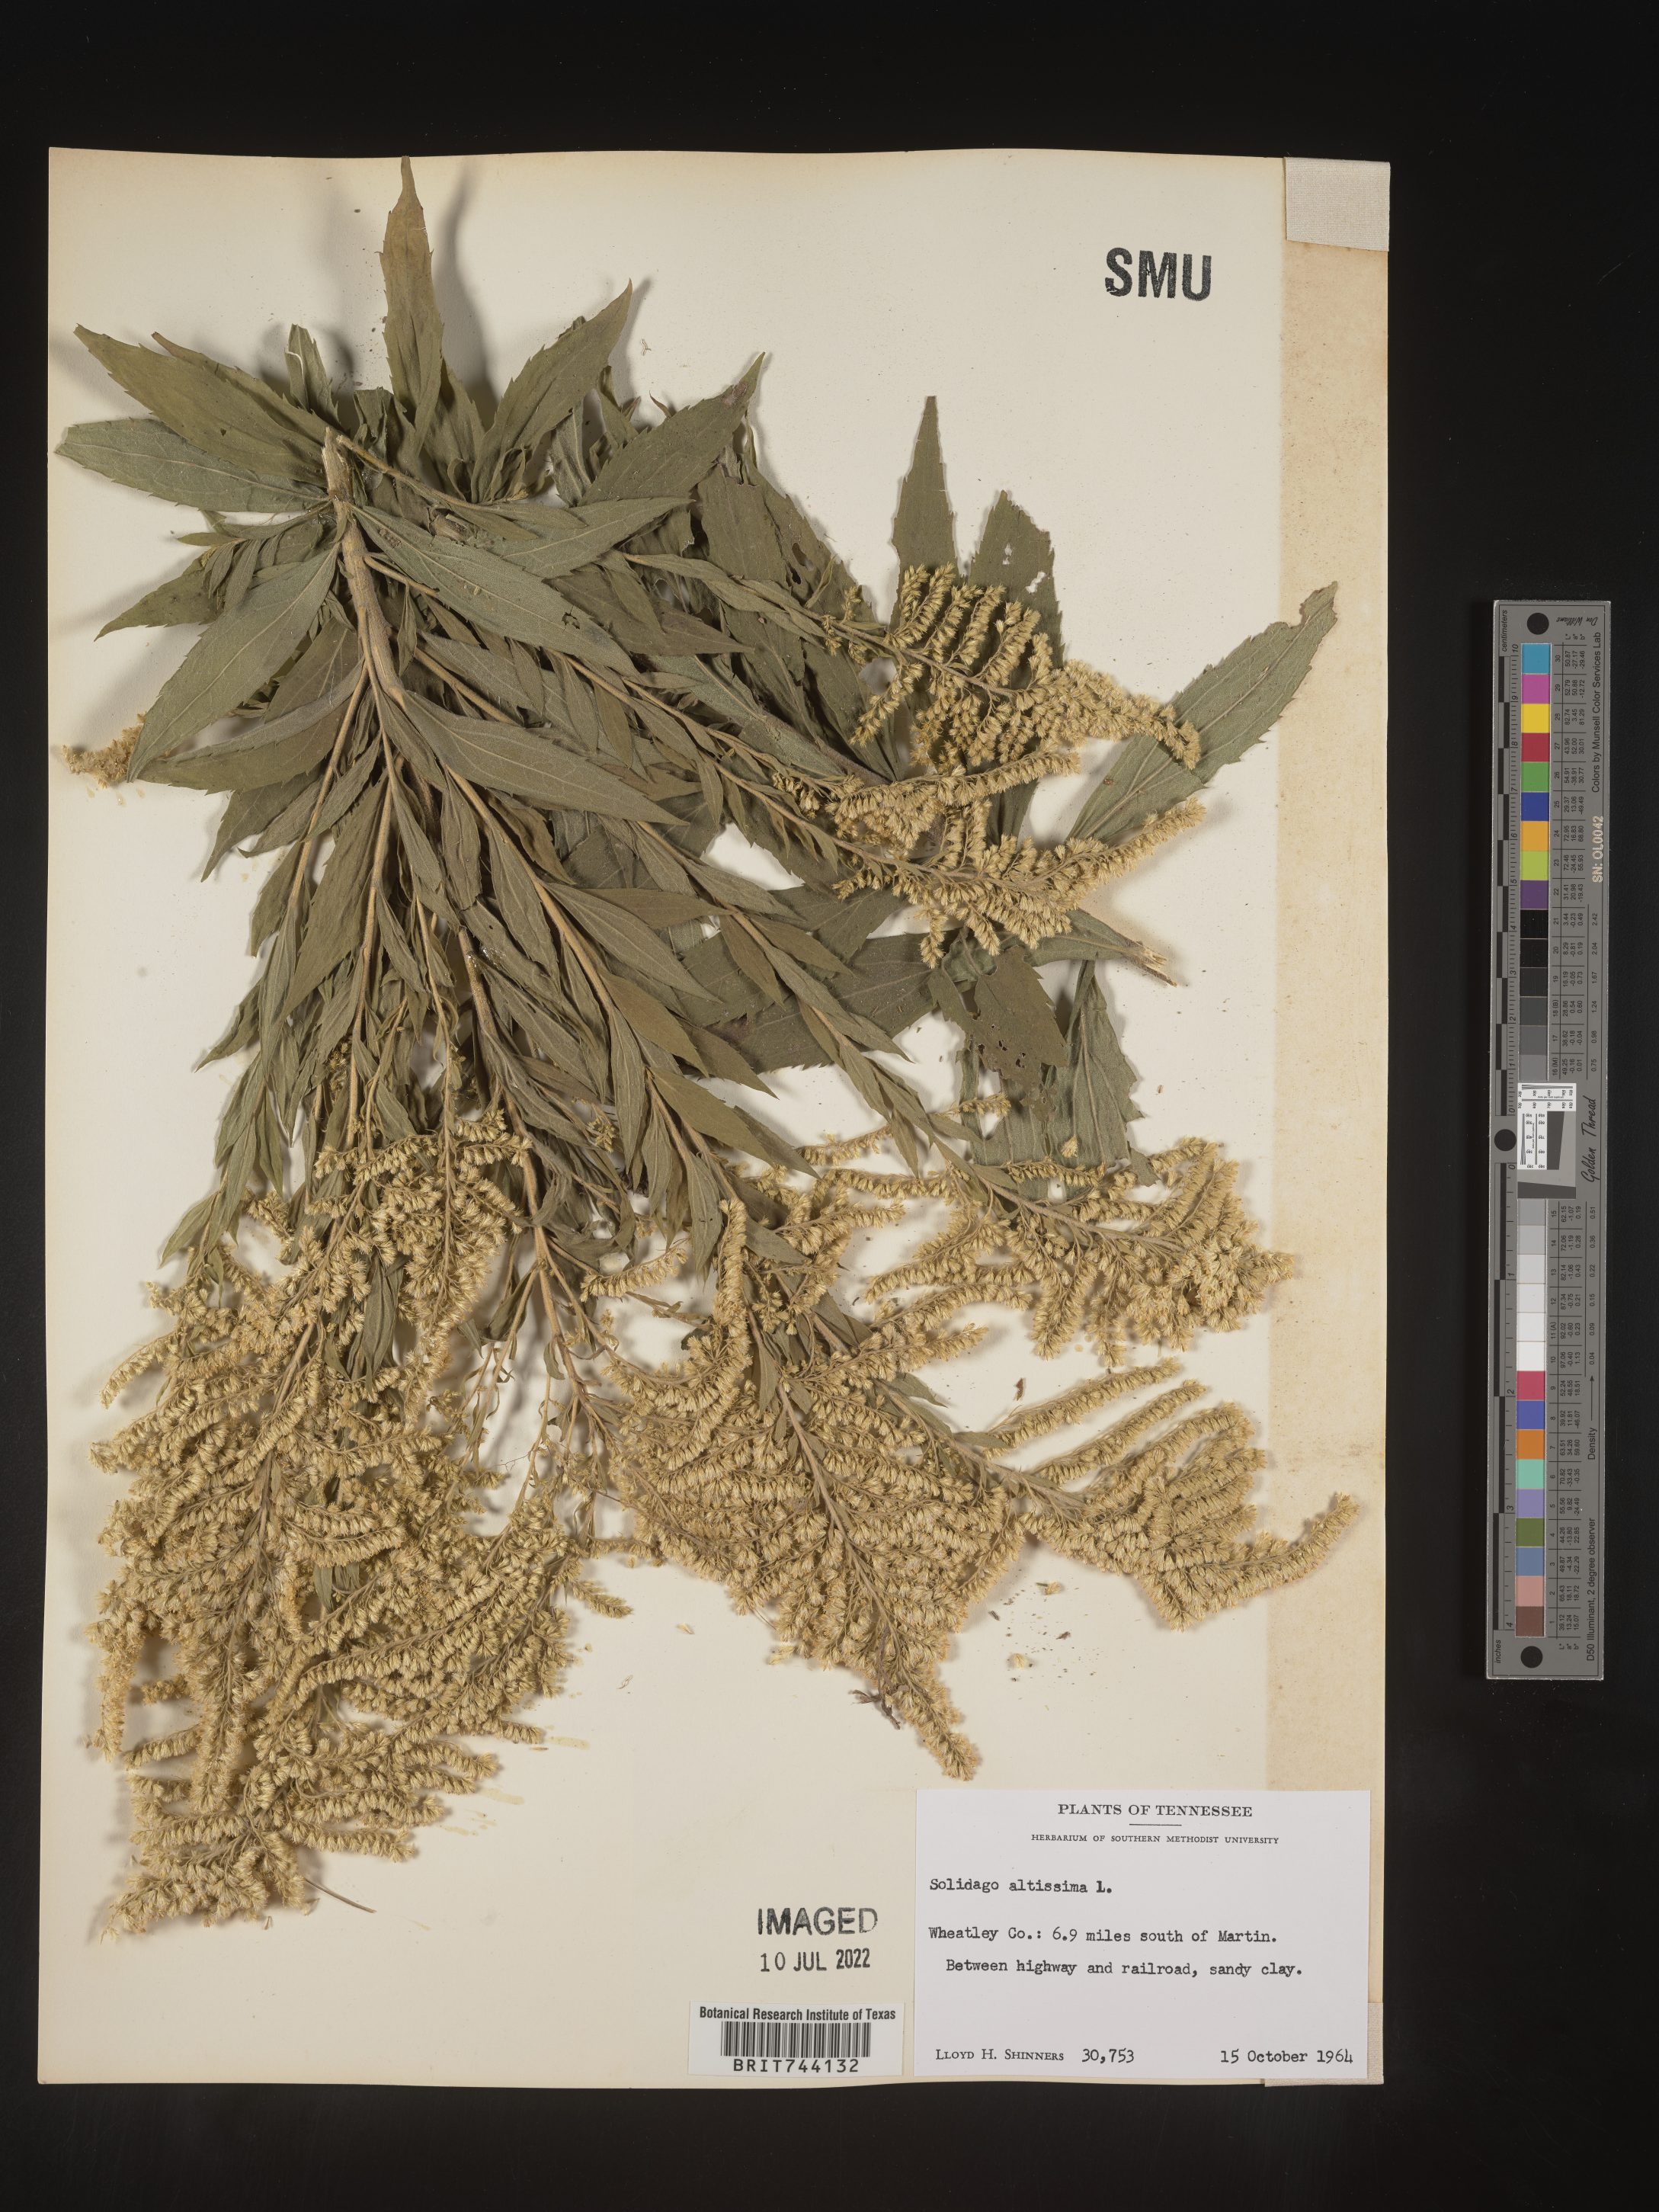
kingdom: Plantae
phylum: Tracheophyta
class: Magnoliopsida
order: Asterales
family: Asteraceae
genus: Solidago
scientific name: Solidago altissima
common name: Late goldenrod
